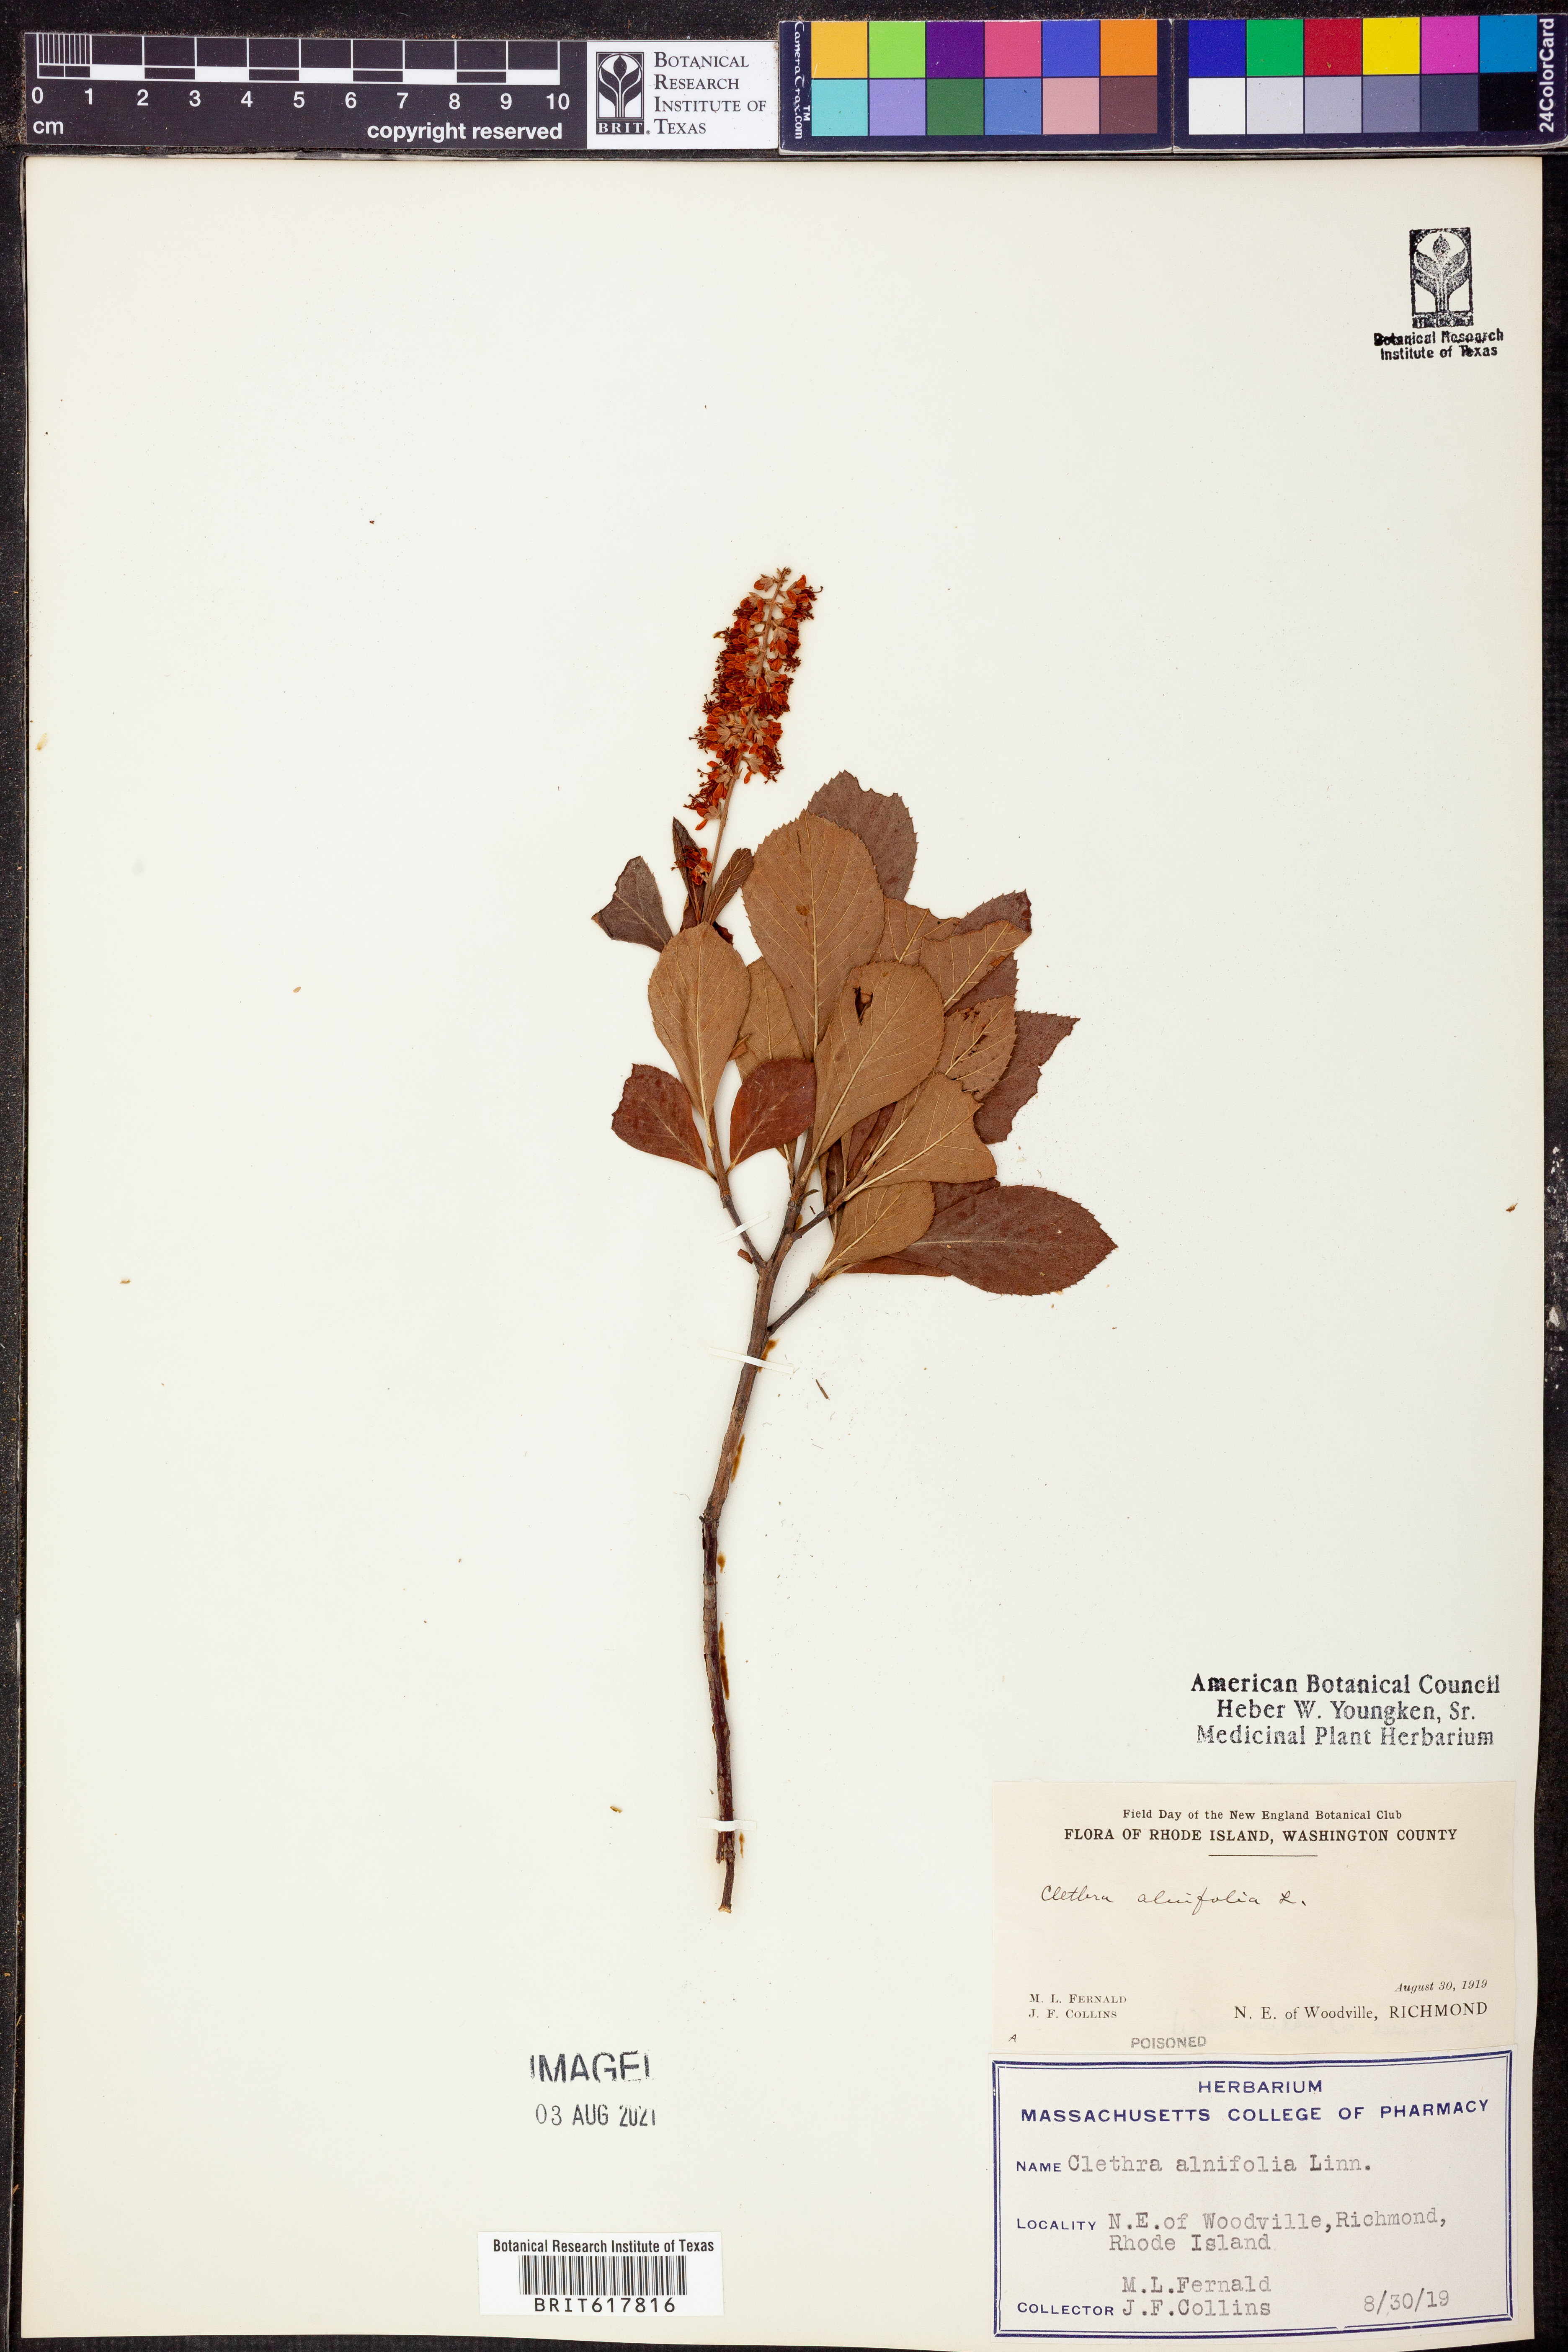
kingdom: Plantae
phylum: Tracheophyta
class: Magnoliopsida
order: Ericales
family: Clethraceae
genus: Clethra
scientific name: Clethra alnifolia
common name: Sweet pepperbush
